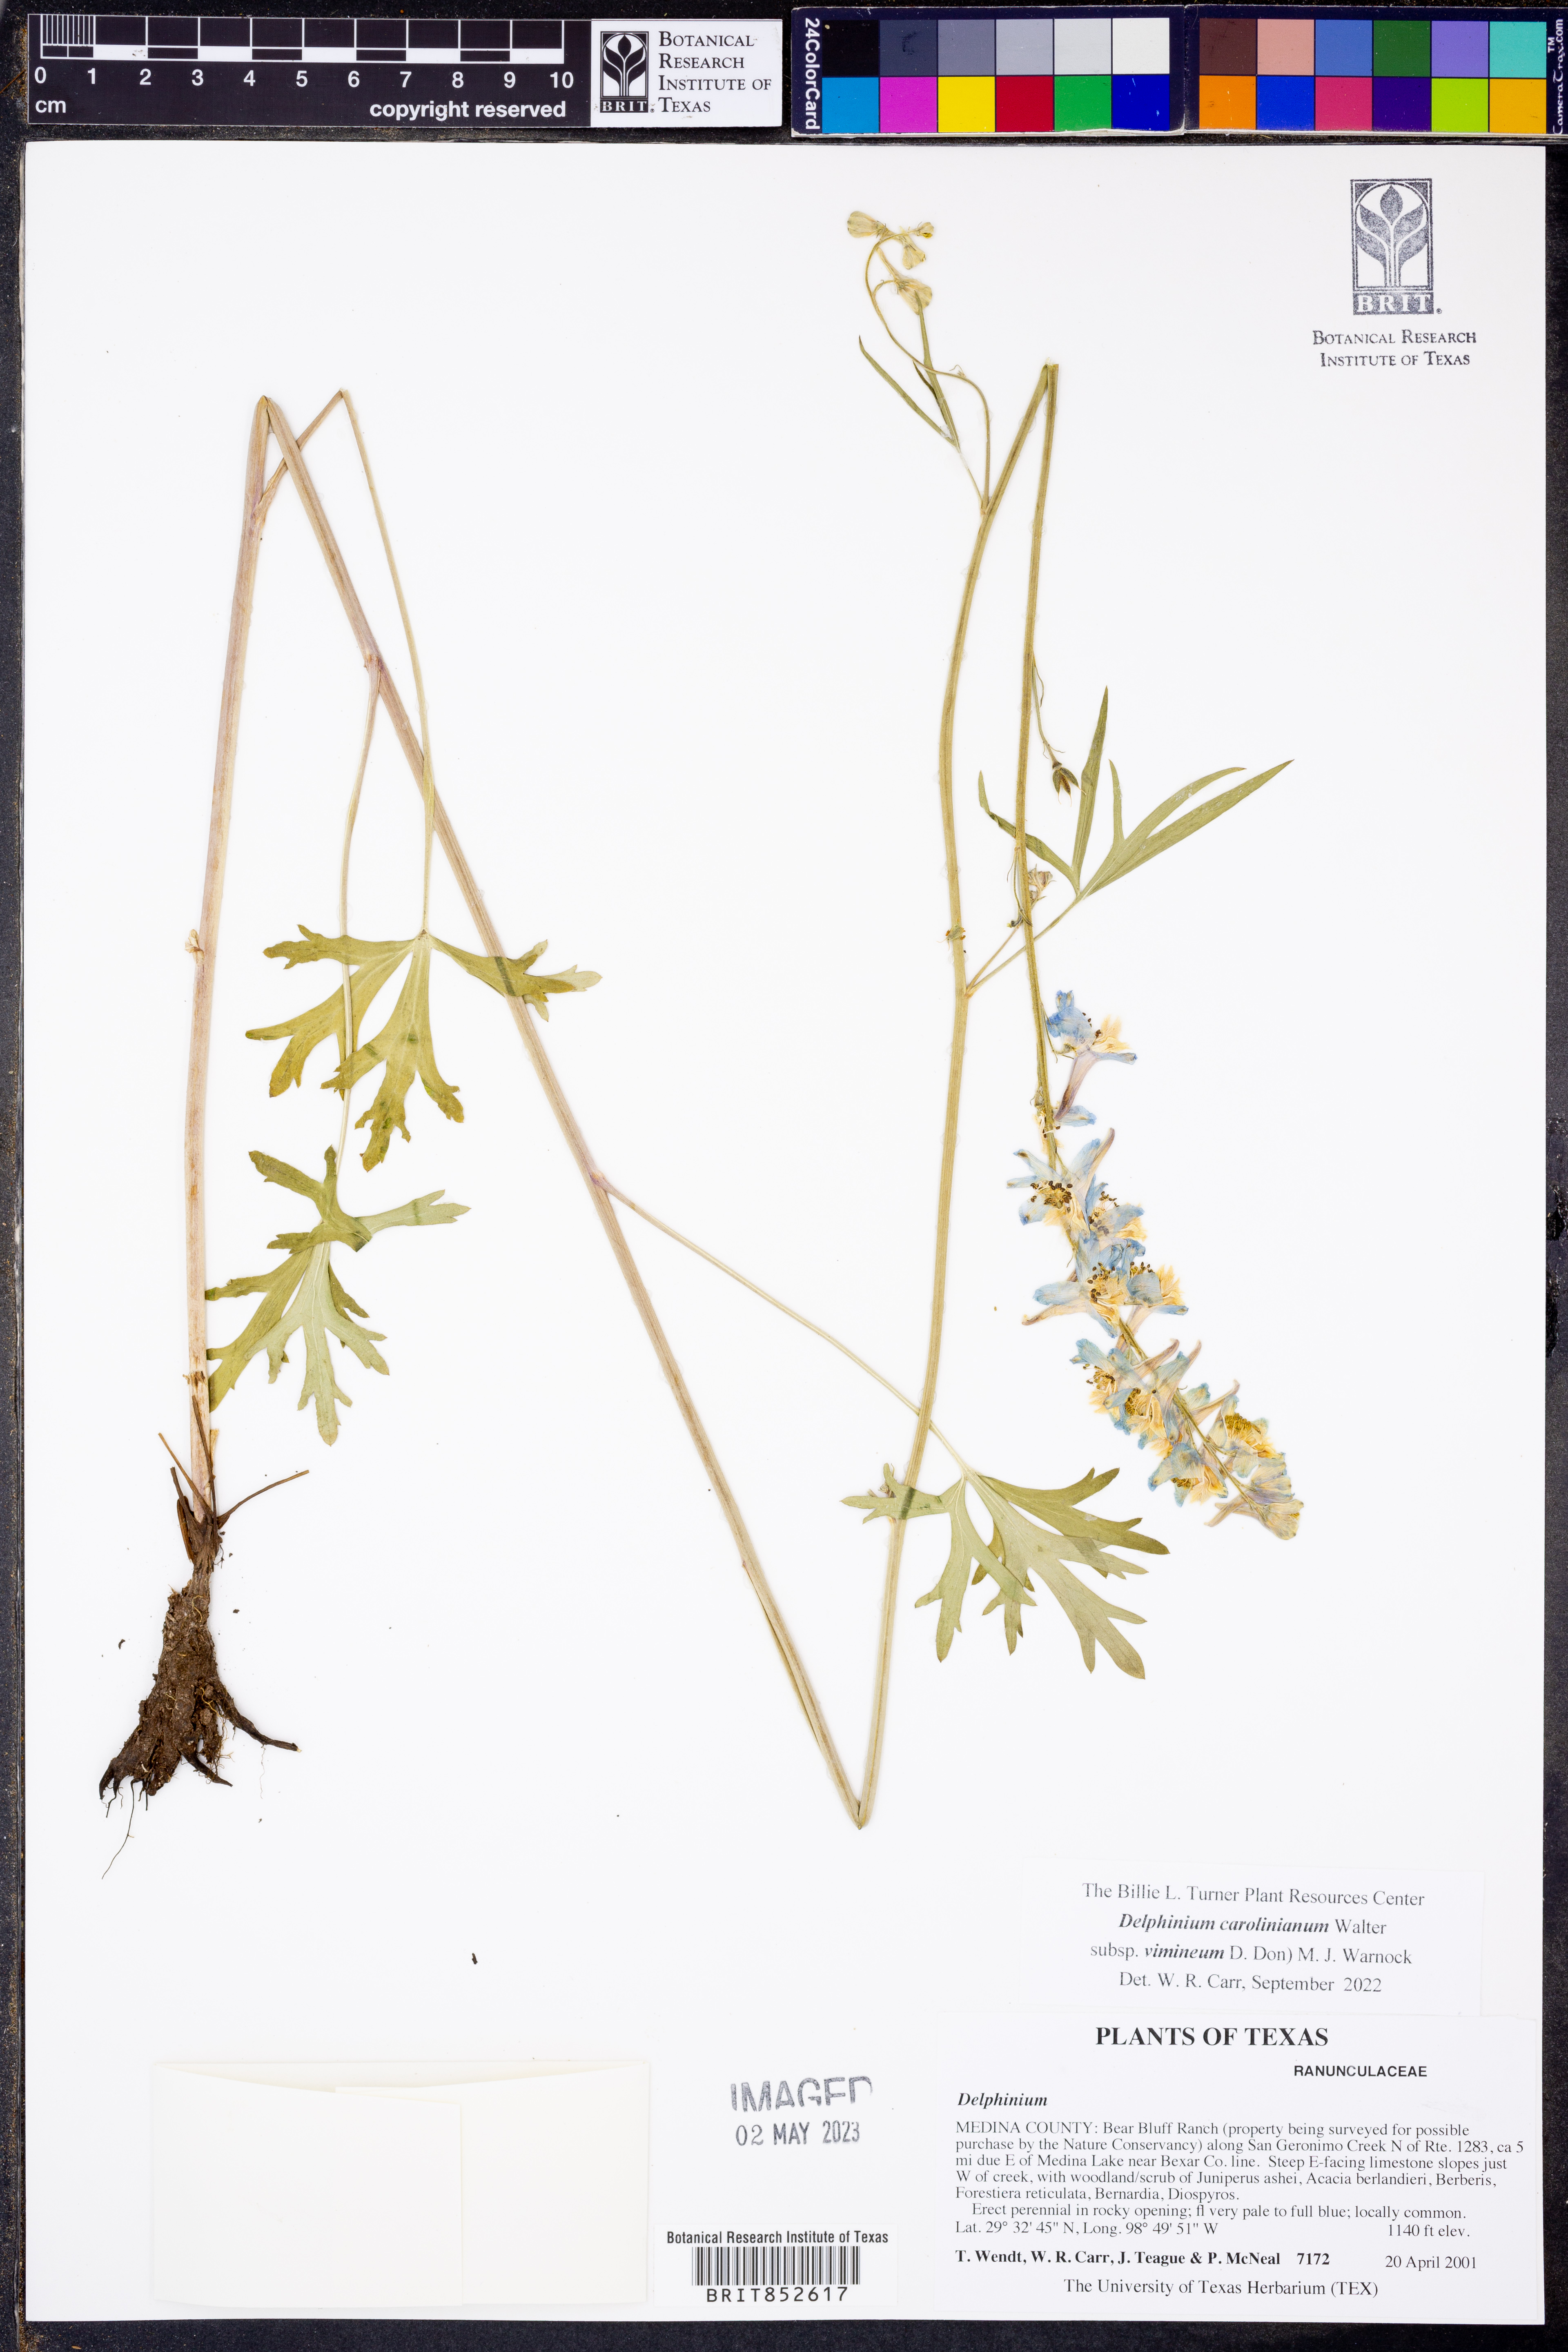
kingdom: Plantae
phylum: Tracheophyta
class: Magnoliopsida
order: Ranunculales
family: Ranunculaceae
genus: Delphinium
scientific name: Delphinium carolinianum
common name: Carolina larkspur
